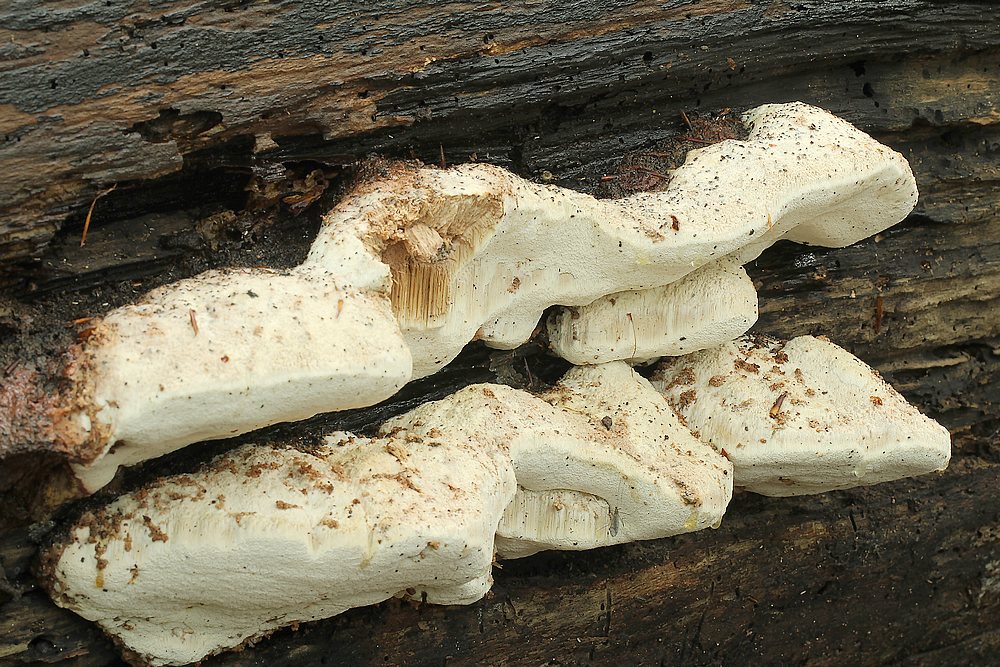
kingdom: Fungi
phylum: Basidiomycota
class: Agaricomycetes
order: Polyporales
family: Meruliaceae
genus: Pappia
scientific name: Pappia fissilis
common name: rosa fedtporesvamp
